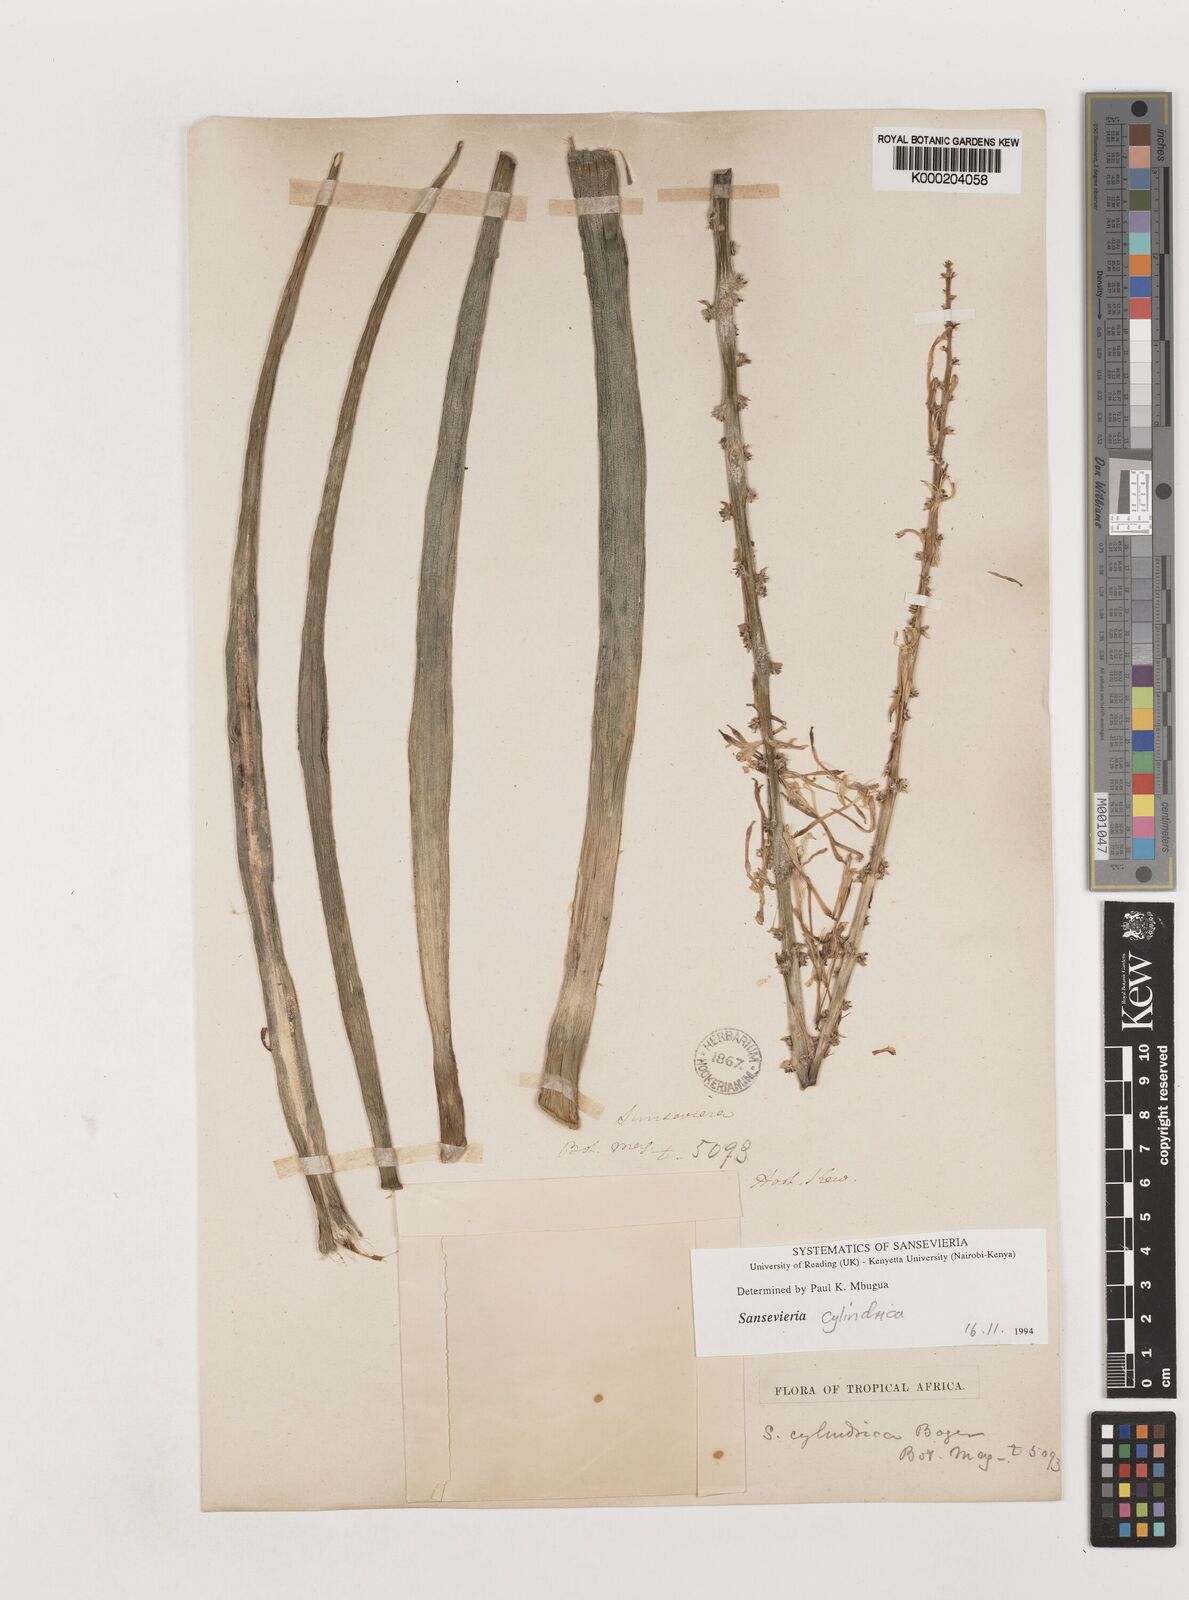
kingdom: Plantae
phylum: Tracheophyta
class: Liliopsida
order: Asparagales
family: Asparagaceae
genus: Dracaena
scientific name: Dracaena angolensis
